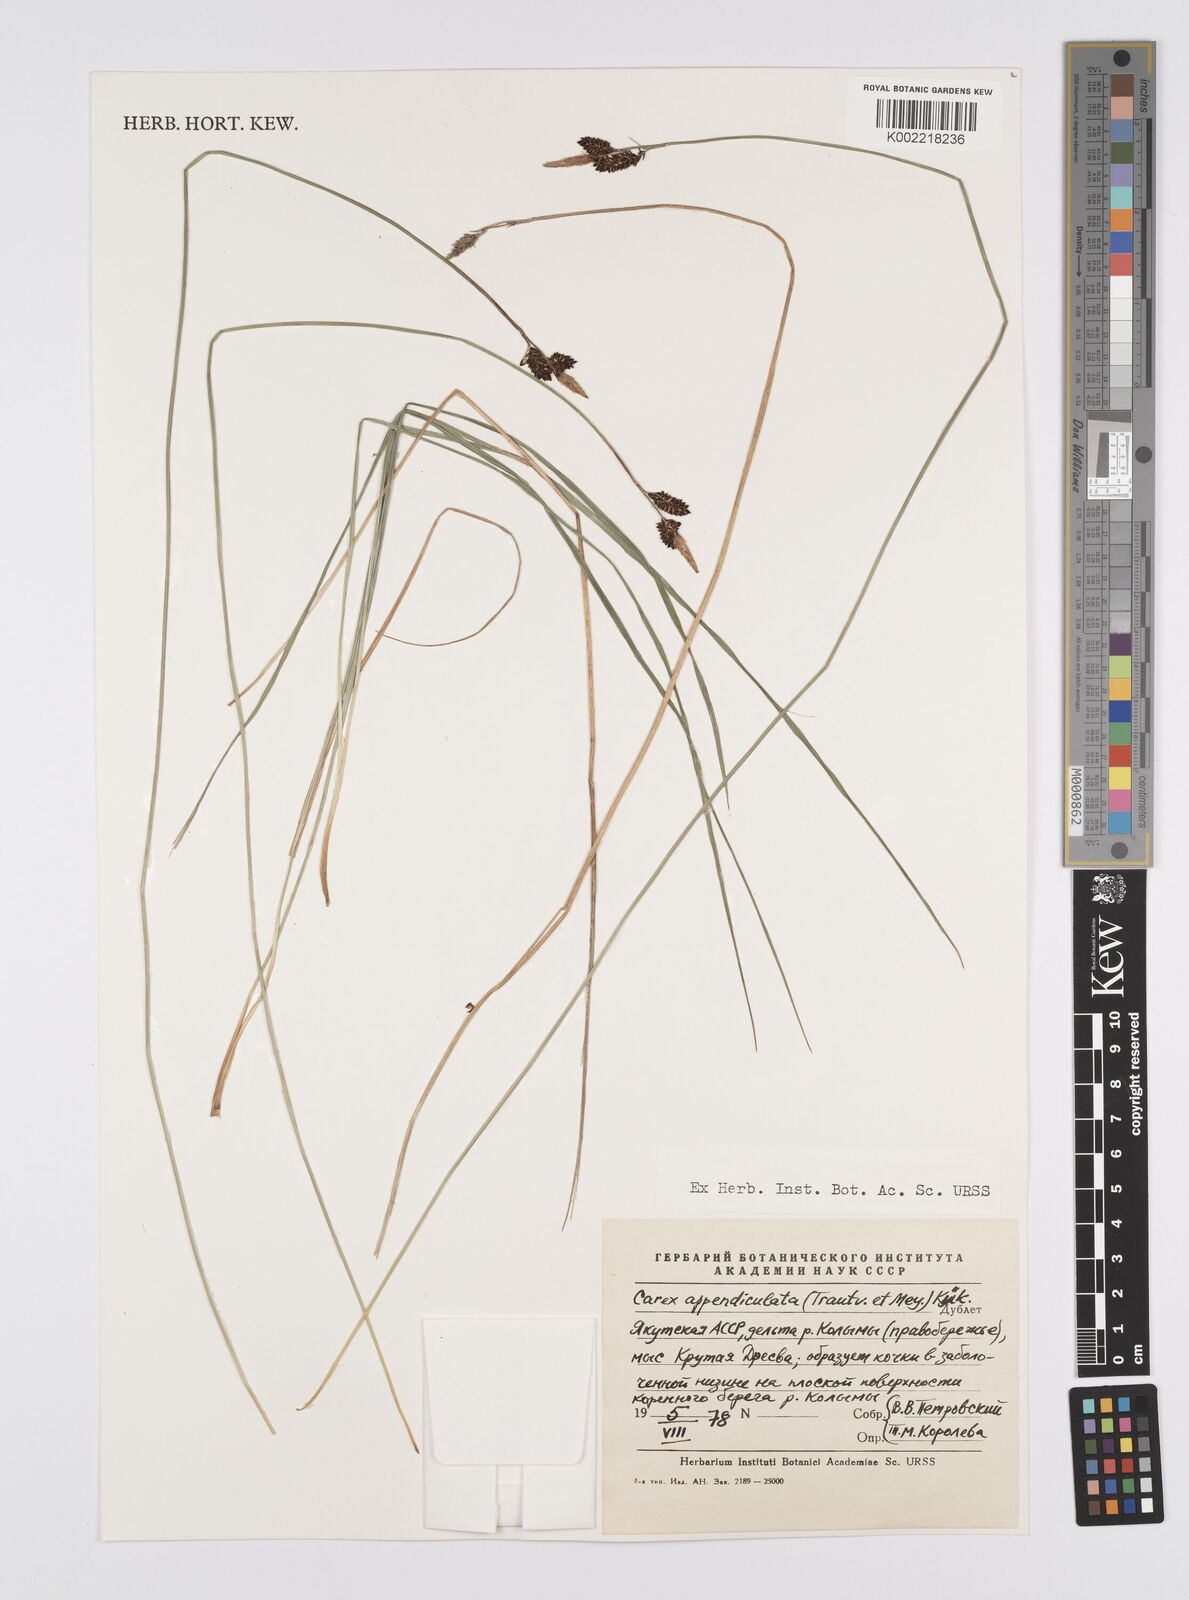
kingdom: Plantae
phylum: Tracheophyta
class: Liliopsida
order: Poales
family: Cyperaceae
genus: Carex
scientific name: Carex appendiculata
